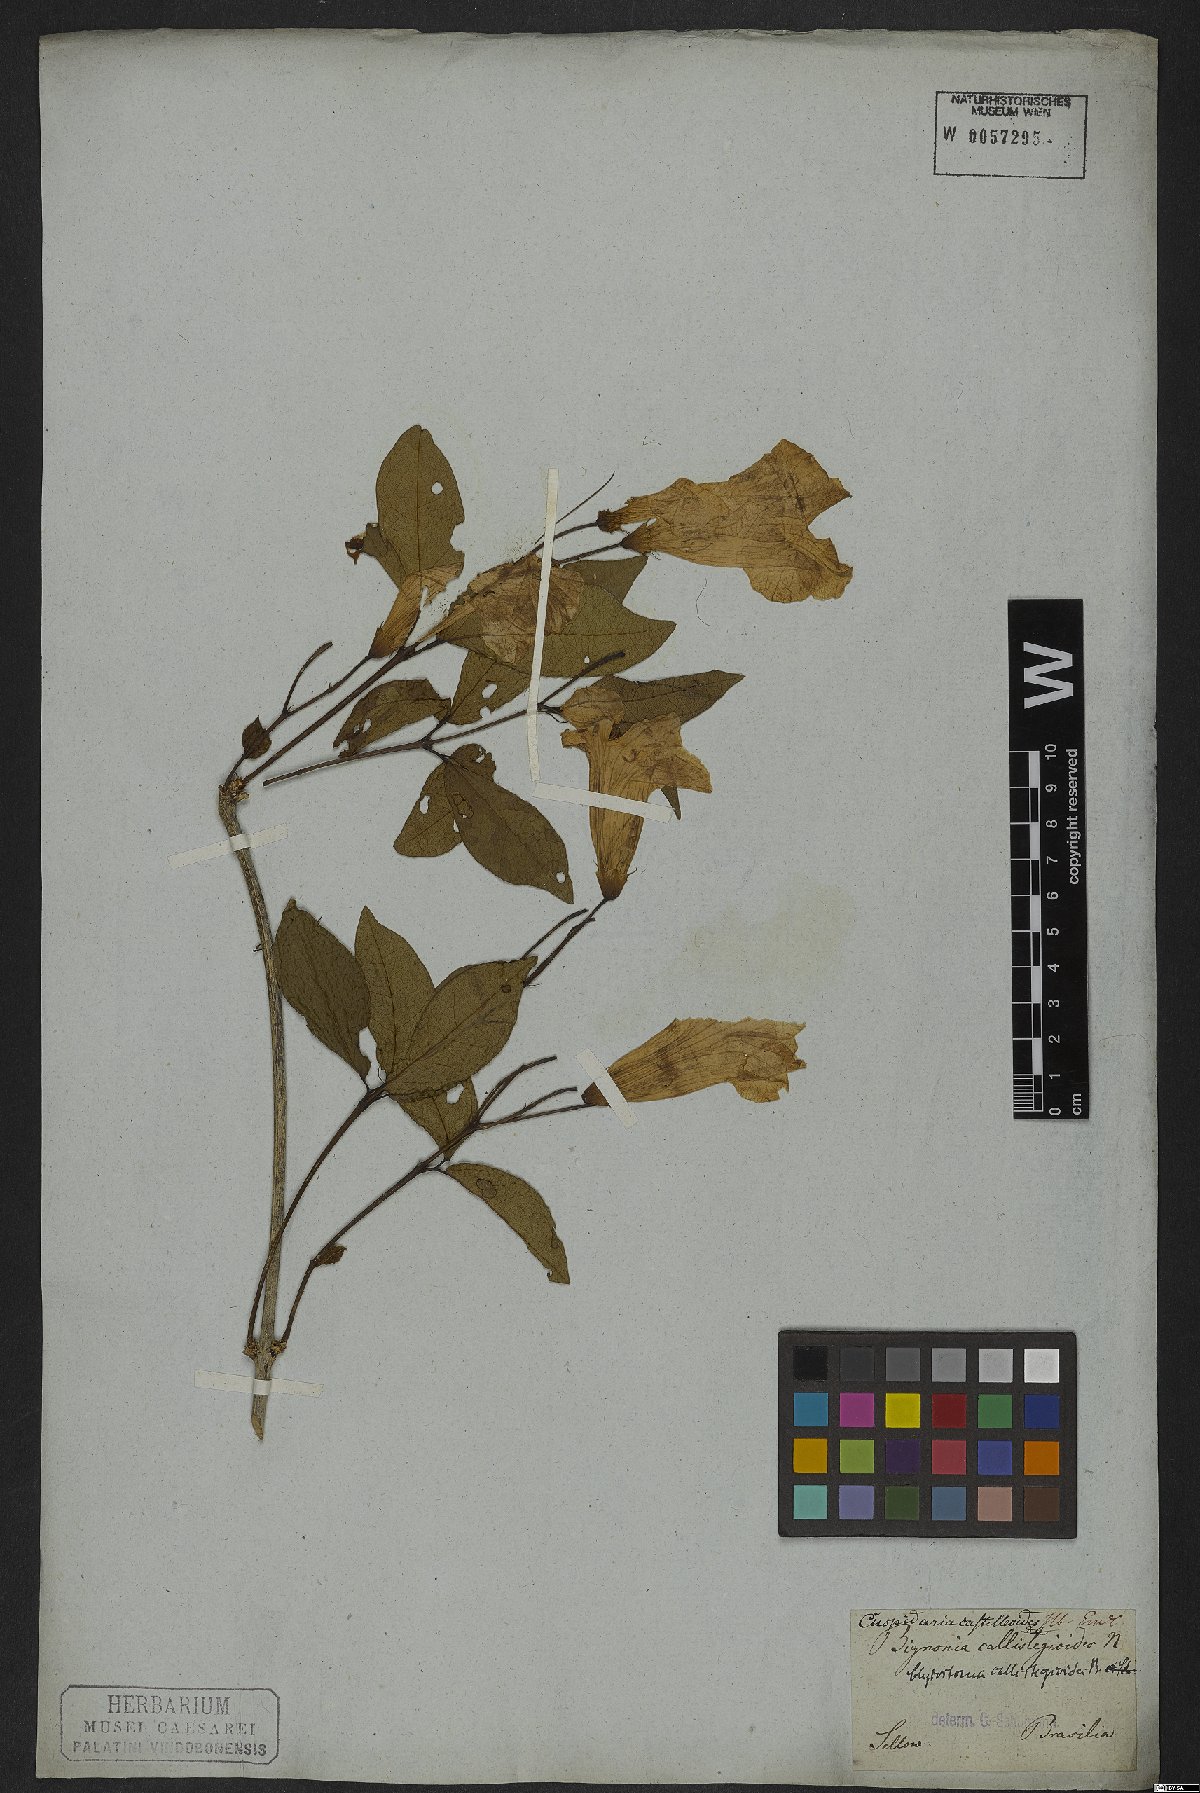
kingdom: Plantae
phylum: Tracheophyta
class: Magnoliopsida
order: Lamiales
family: Bignoniaceae
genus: Bignonia
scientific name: Bignonia callistegioides
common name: Argentine trumpetvine
